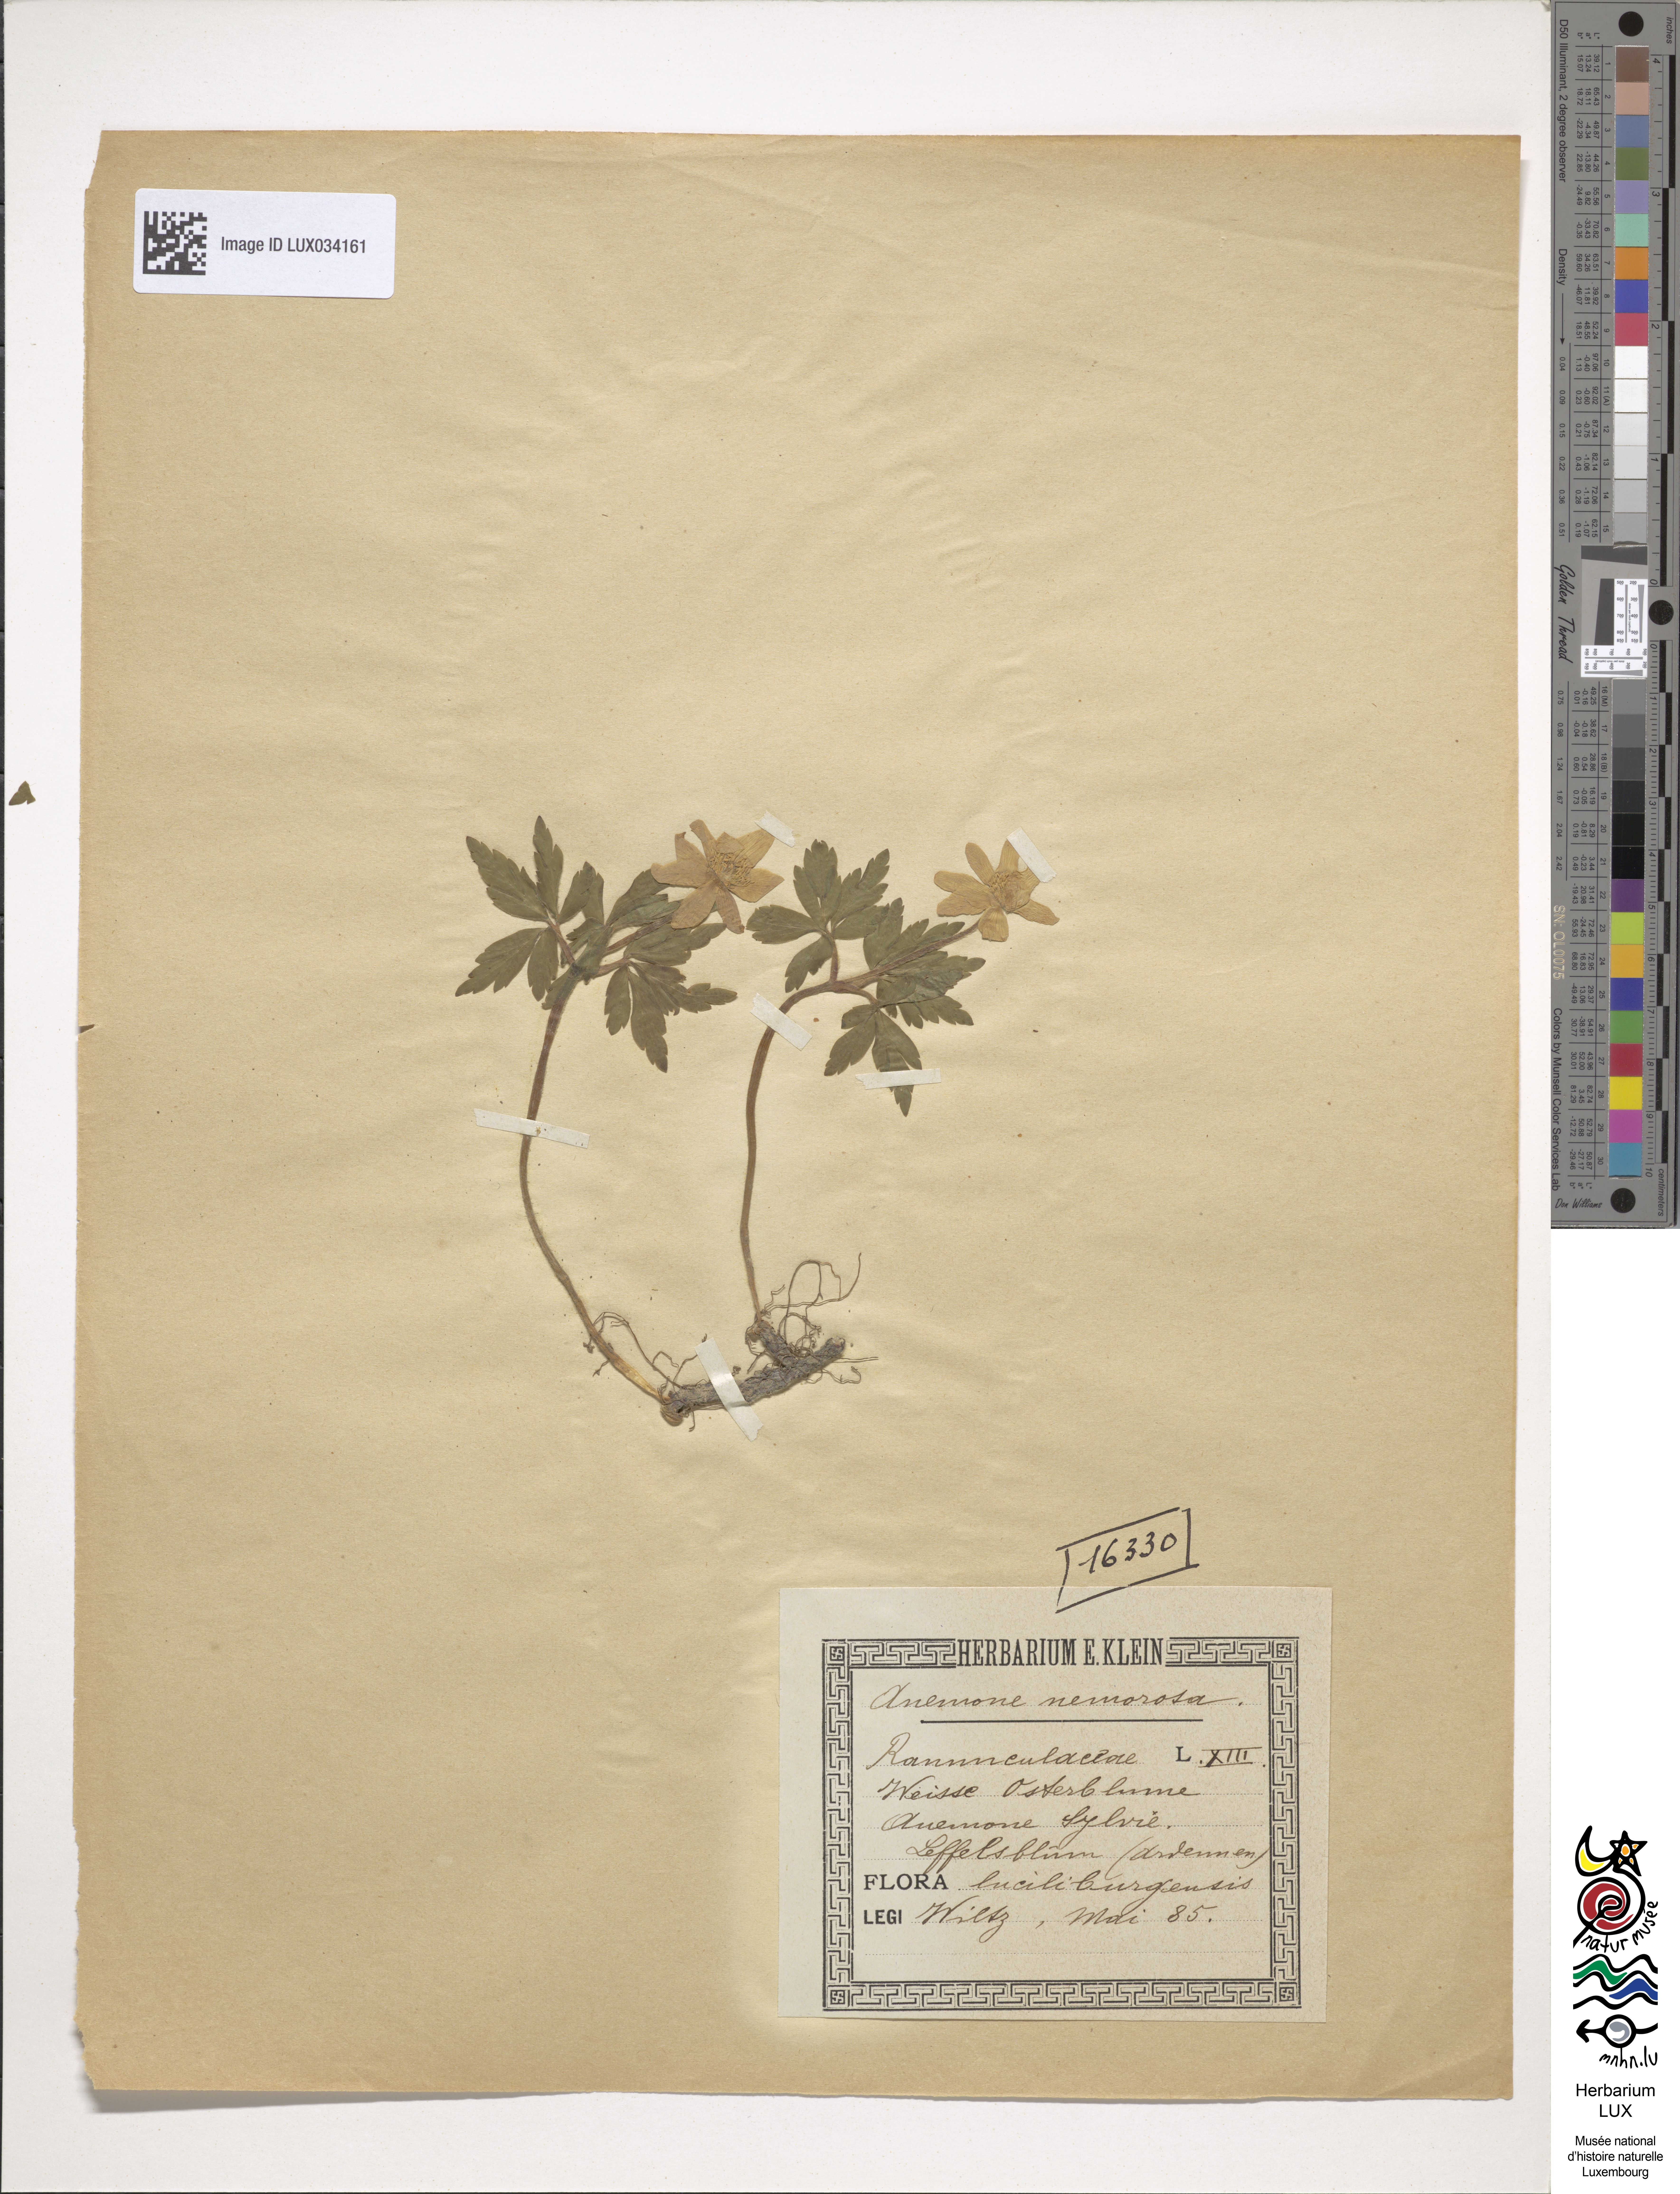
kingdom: Plantae
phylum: Tracheophyta
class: Magnoliopsida
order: Ranunculales
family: Ranunculaceae
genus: Anemone
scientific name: Anemone nemorosa
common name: Wood anemone
